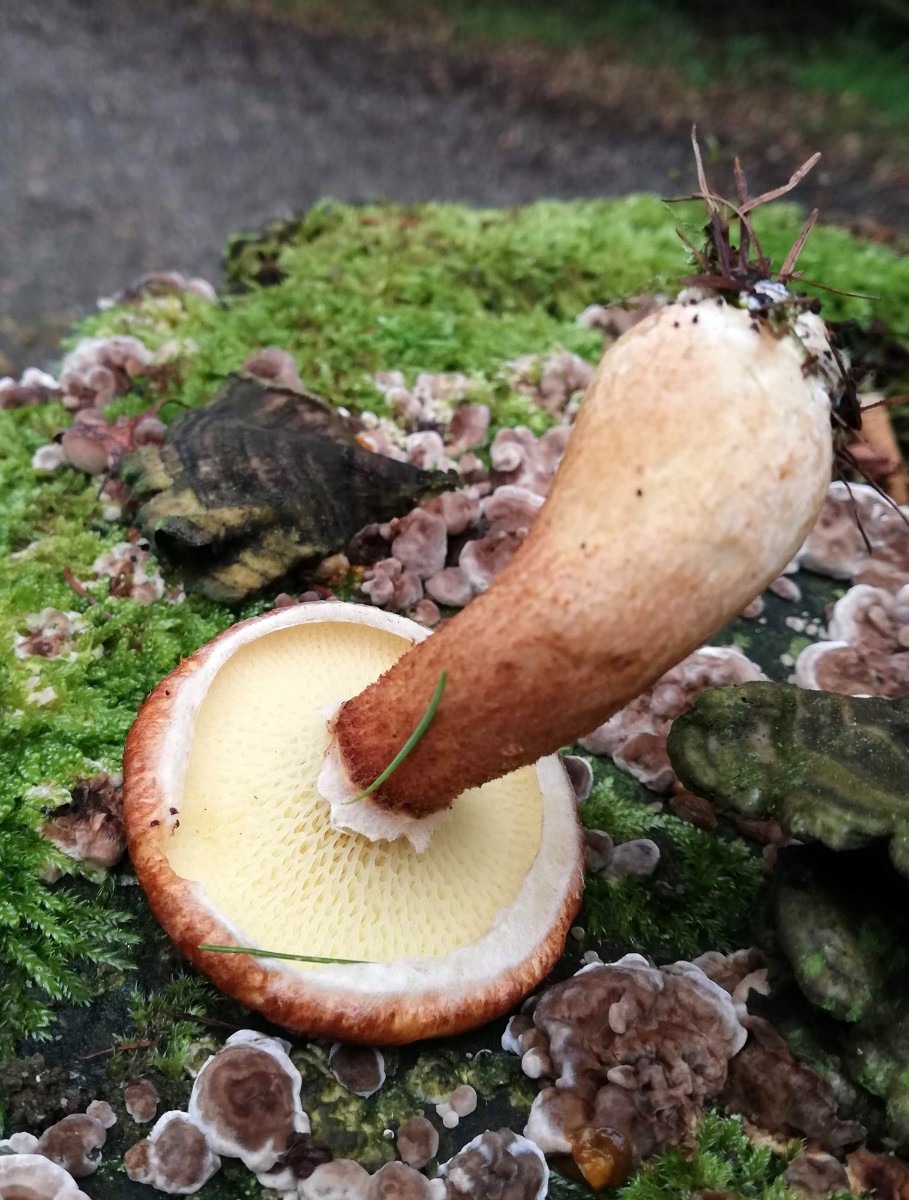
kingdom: Fungi
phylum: Basidiomycota
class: Agaricomycetes
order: Boletales
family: Suillaceae
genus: Suillus
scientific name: Suillus cavipes
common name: hulstokket slimrørhat
